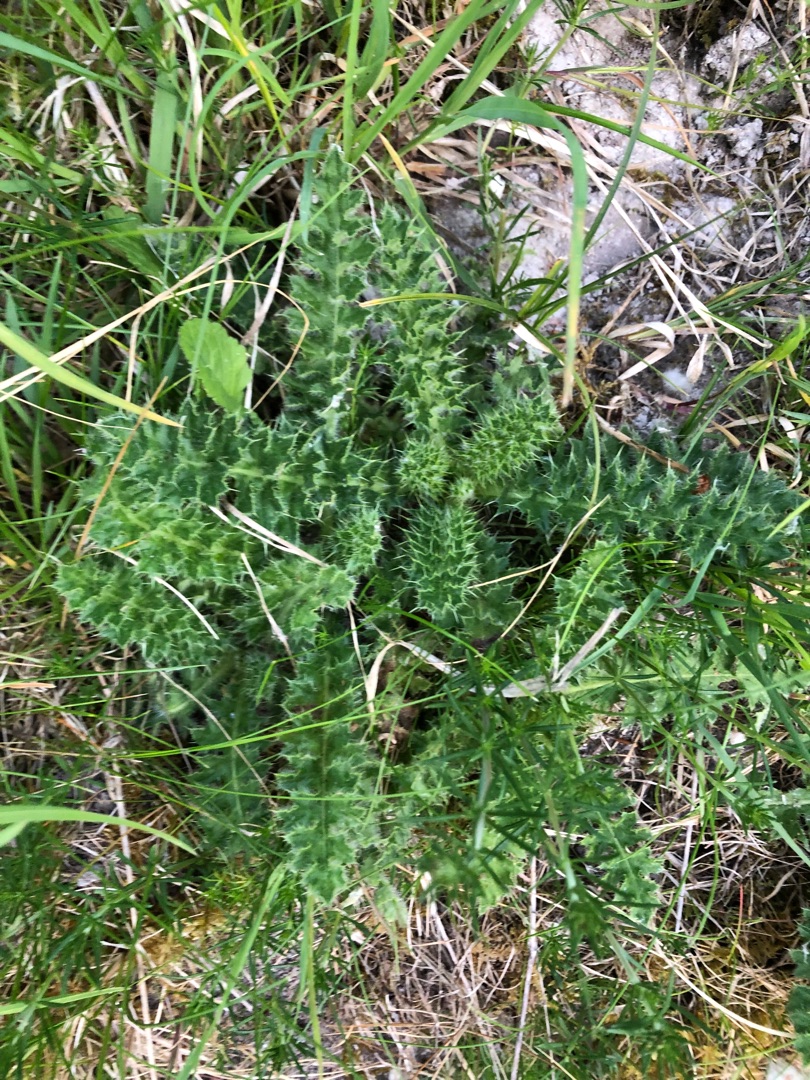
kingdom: Plantae
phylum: Tracheophyta
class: Magnoliopsida
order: Asterales
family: Asteraceae
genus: Cirsium
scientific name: Cirsium acaule
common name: Lav tidsel
